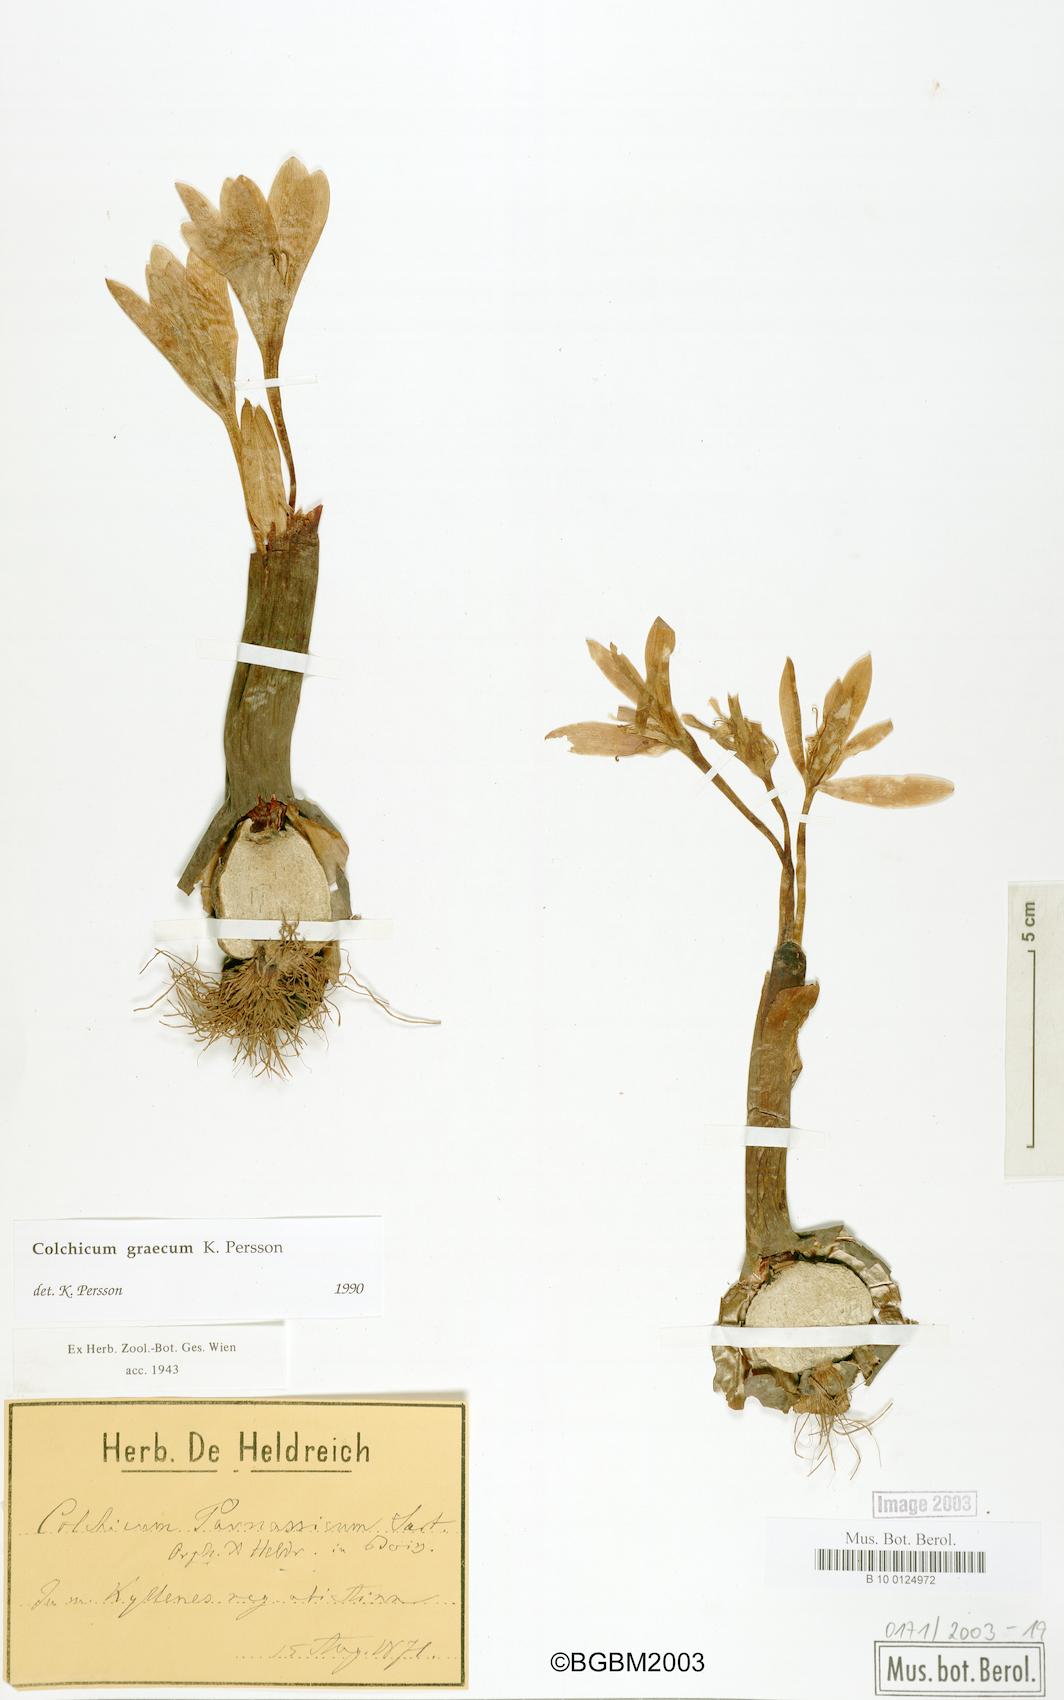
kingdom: Plantae
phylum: Tracheophyta
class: Liliopsida
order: Liliales
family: Colchicaceae
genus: Colchicum
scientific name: Colchicum graecum
